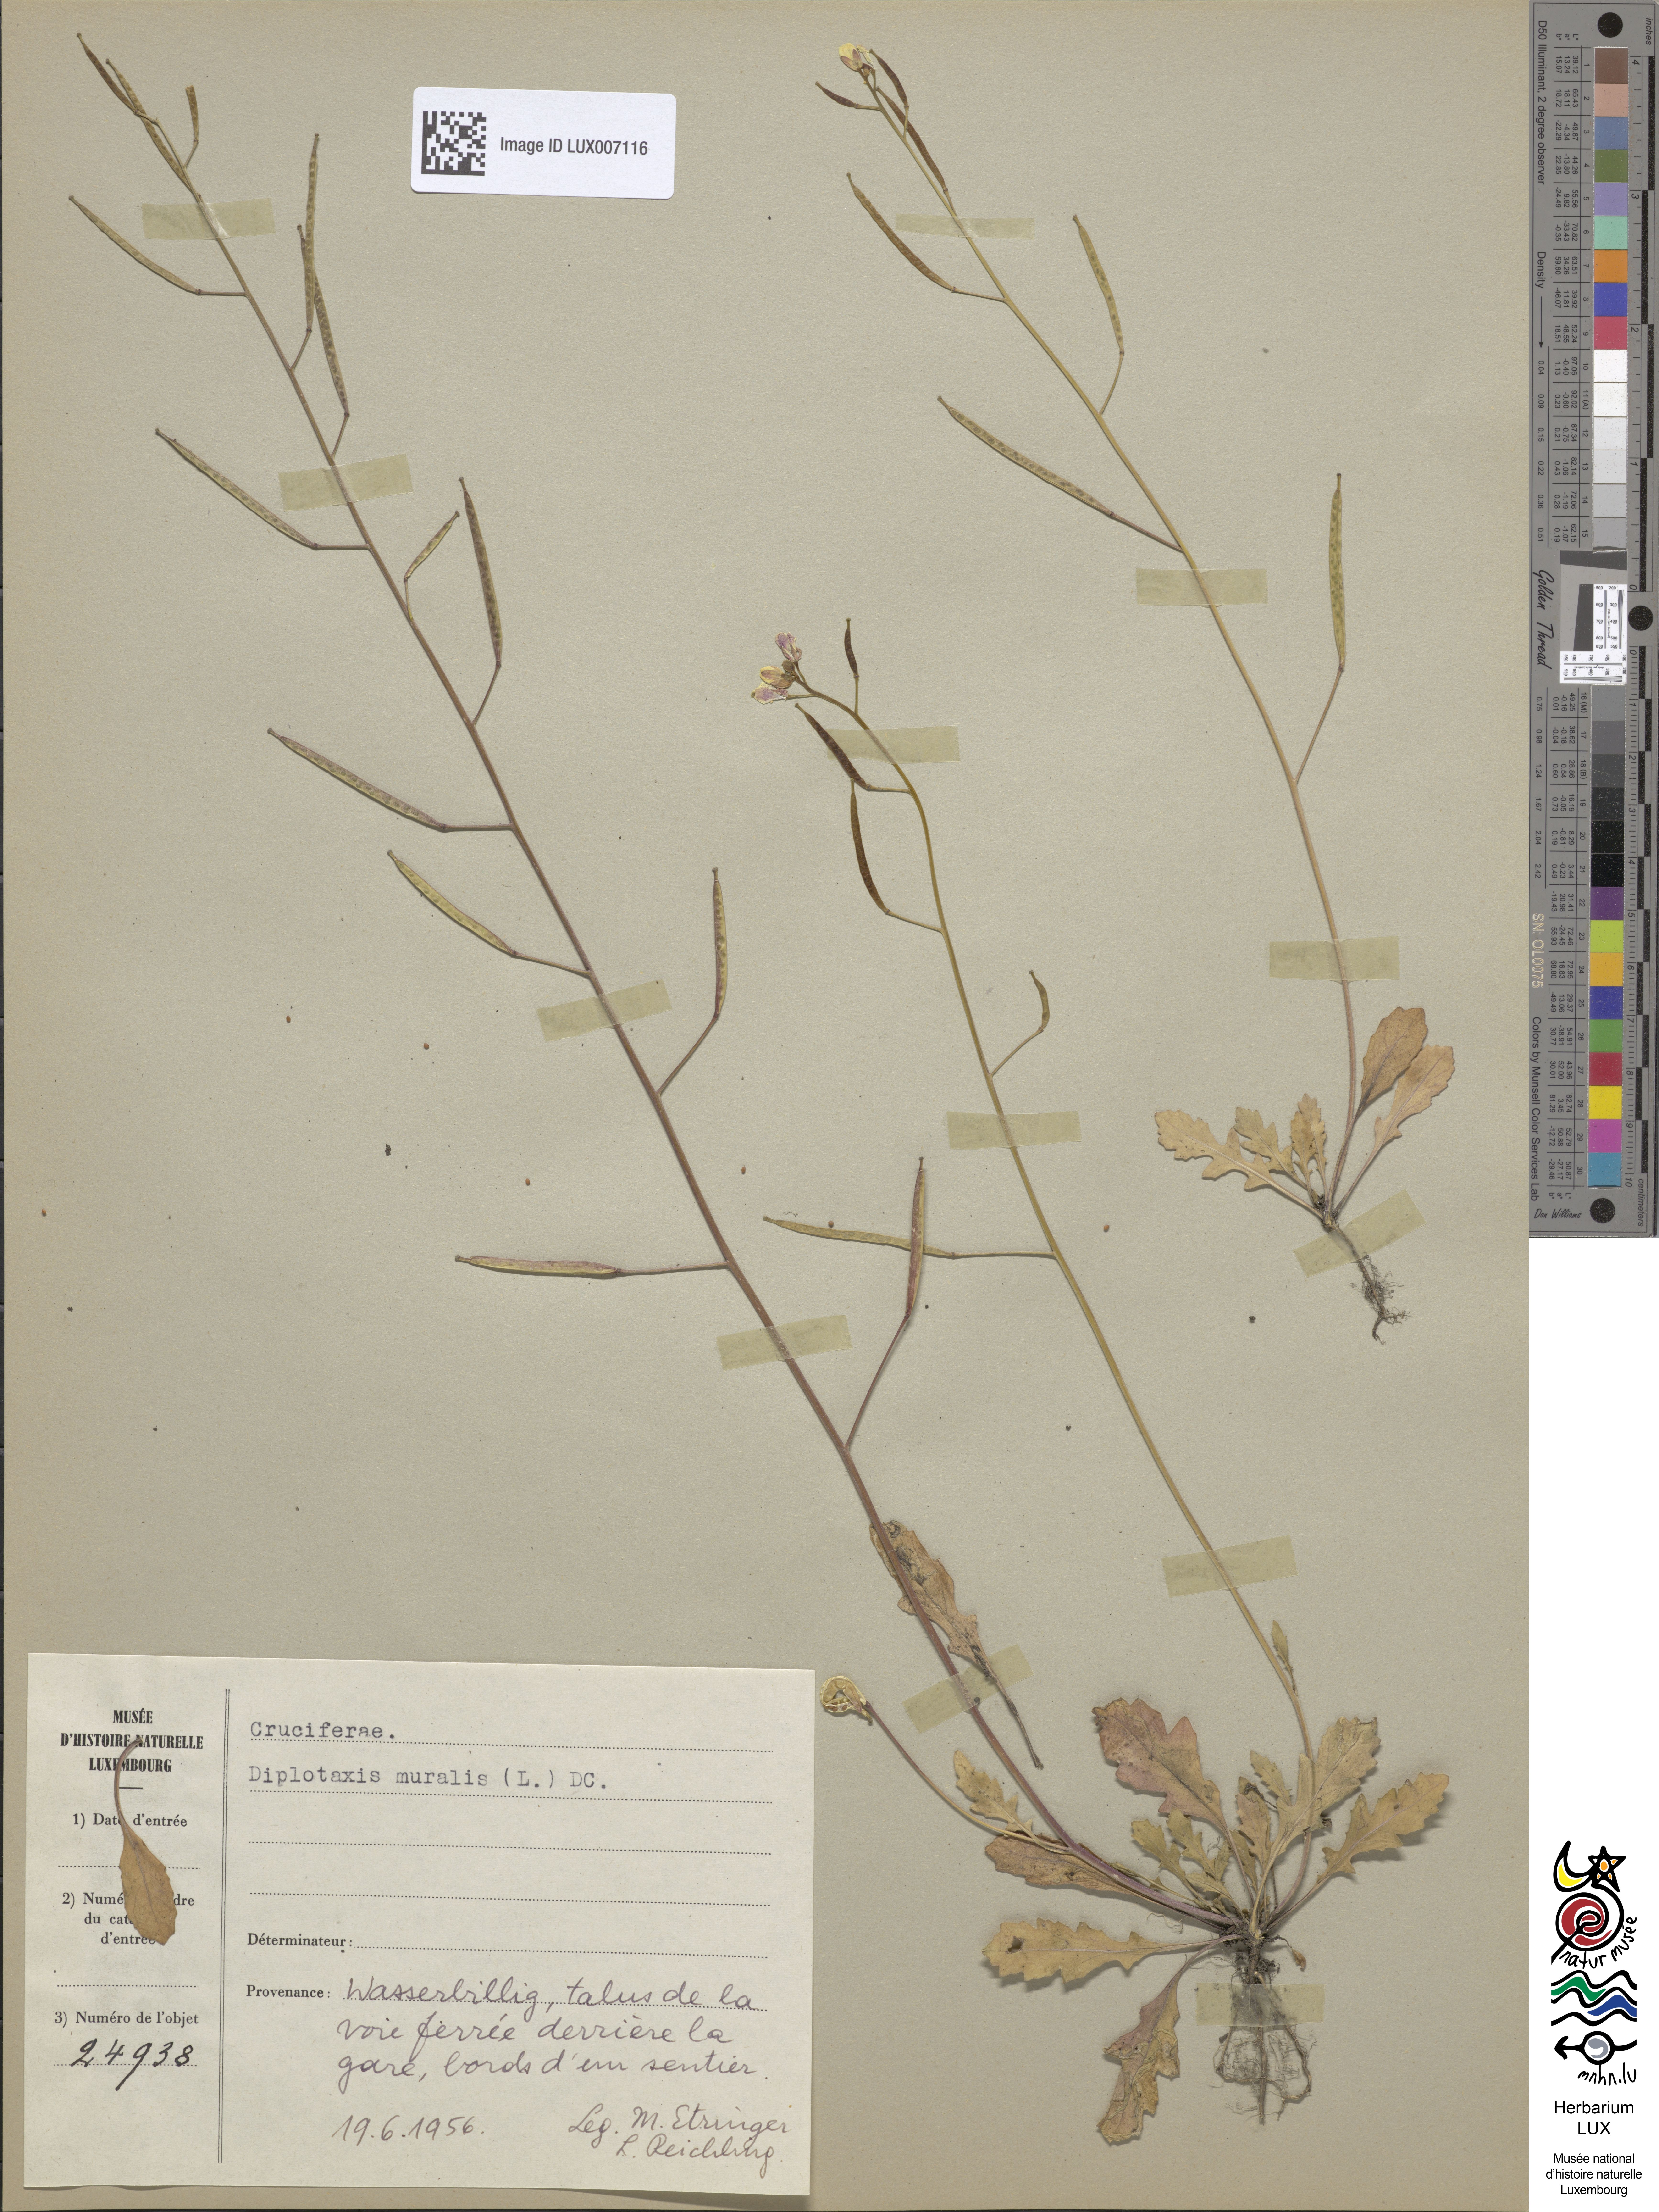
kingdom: Plantae
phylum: Tracheophyta
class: Magnoliopsida
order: Brassicales
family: Brassicaceae
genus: Diplotaxis
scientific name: Diplotaxis muralis
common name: Annual wall-rocket
